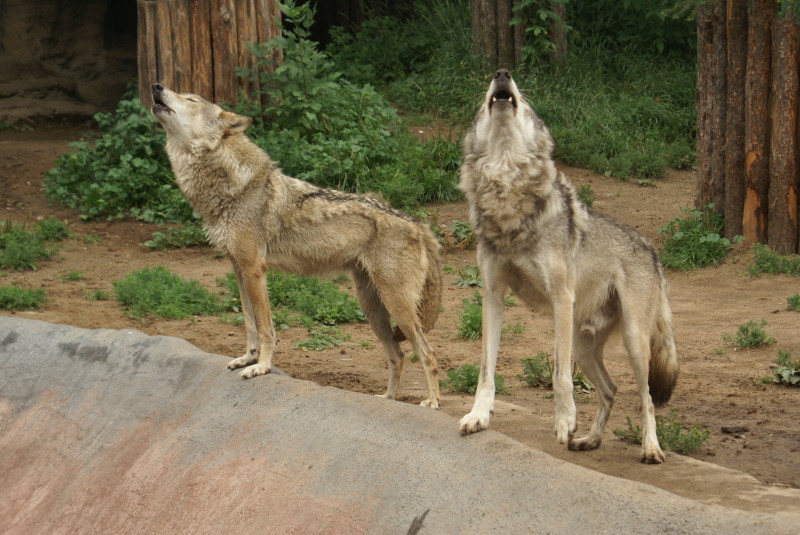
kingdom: Animalia
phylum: Chordata
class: Mammalia
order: Carnivora
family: Canidae
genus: Canis
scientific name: Canis lupus
